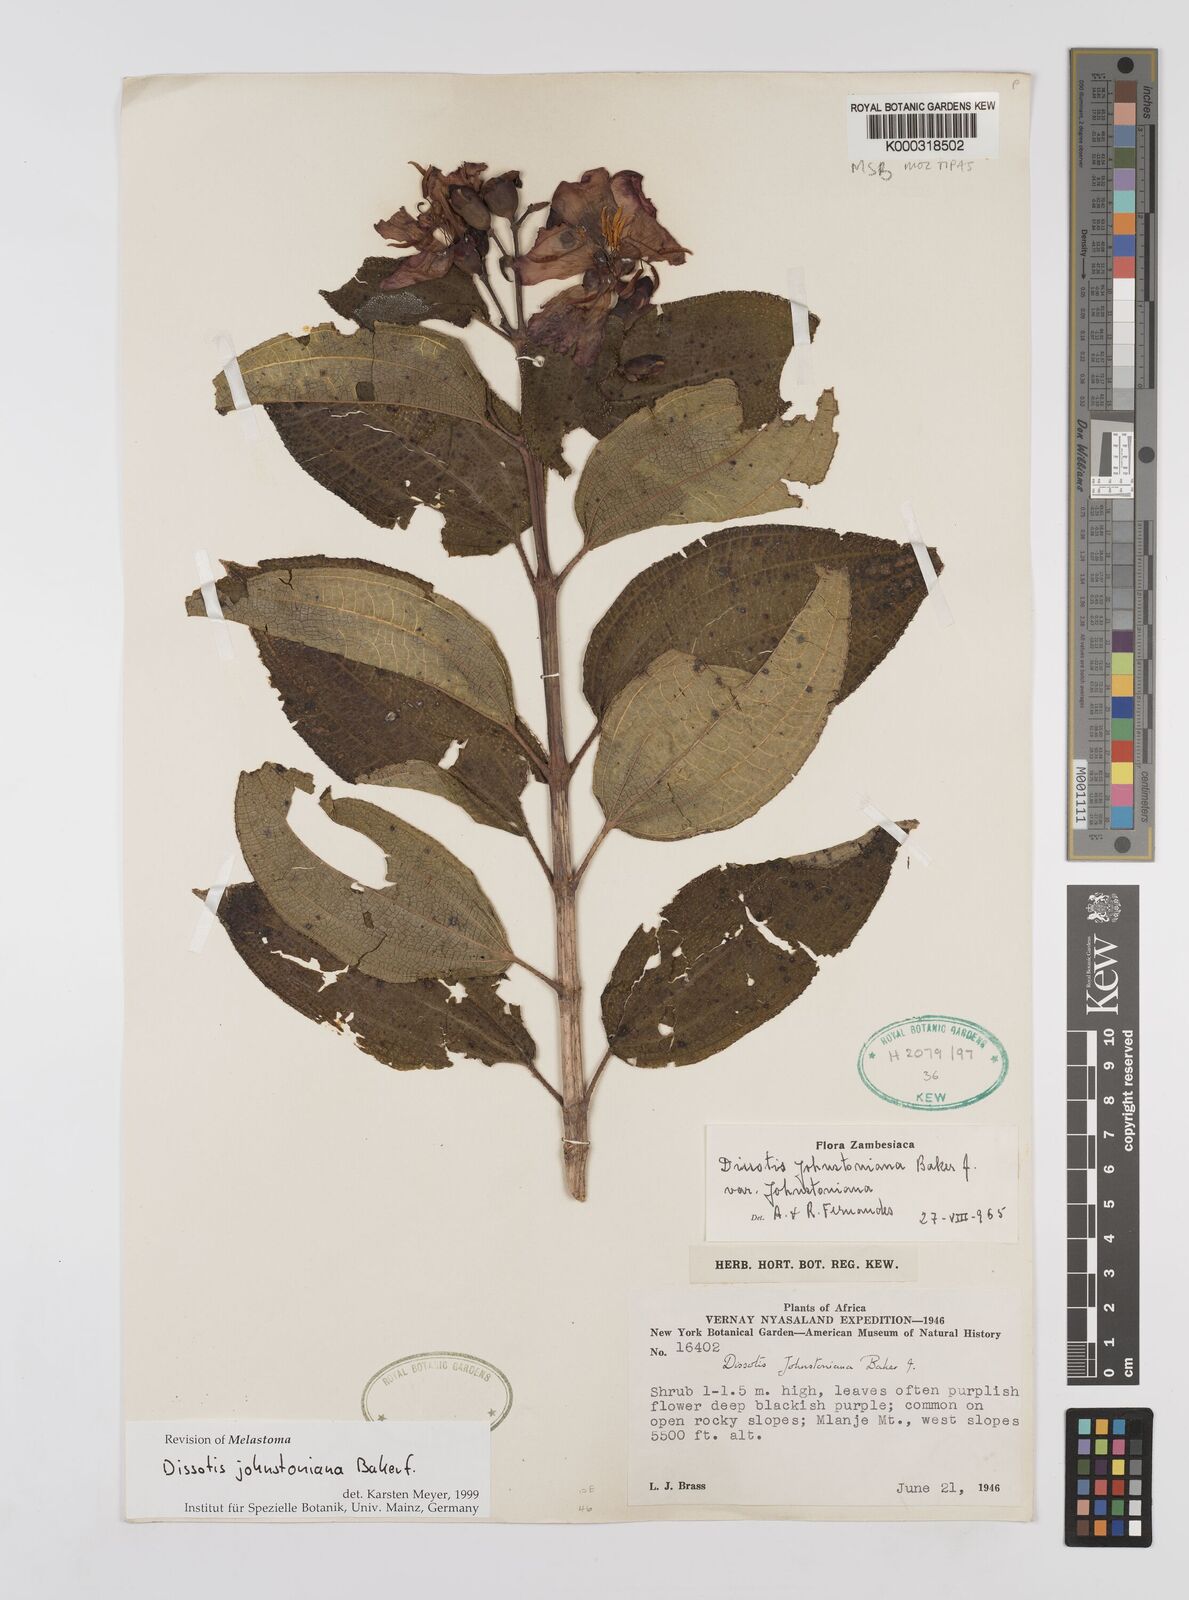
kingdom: Plantae
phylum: Tracheophyta
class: Magnoliopsida
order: Myrtales
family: Melastomataceae
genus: Dissotidendron
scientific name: Dissotidendron johnstonianum
